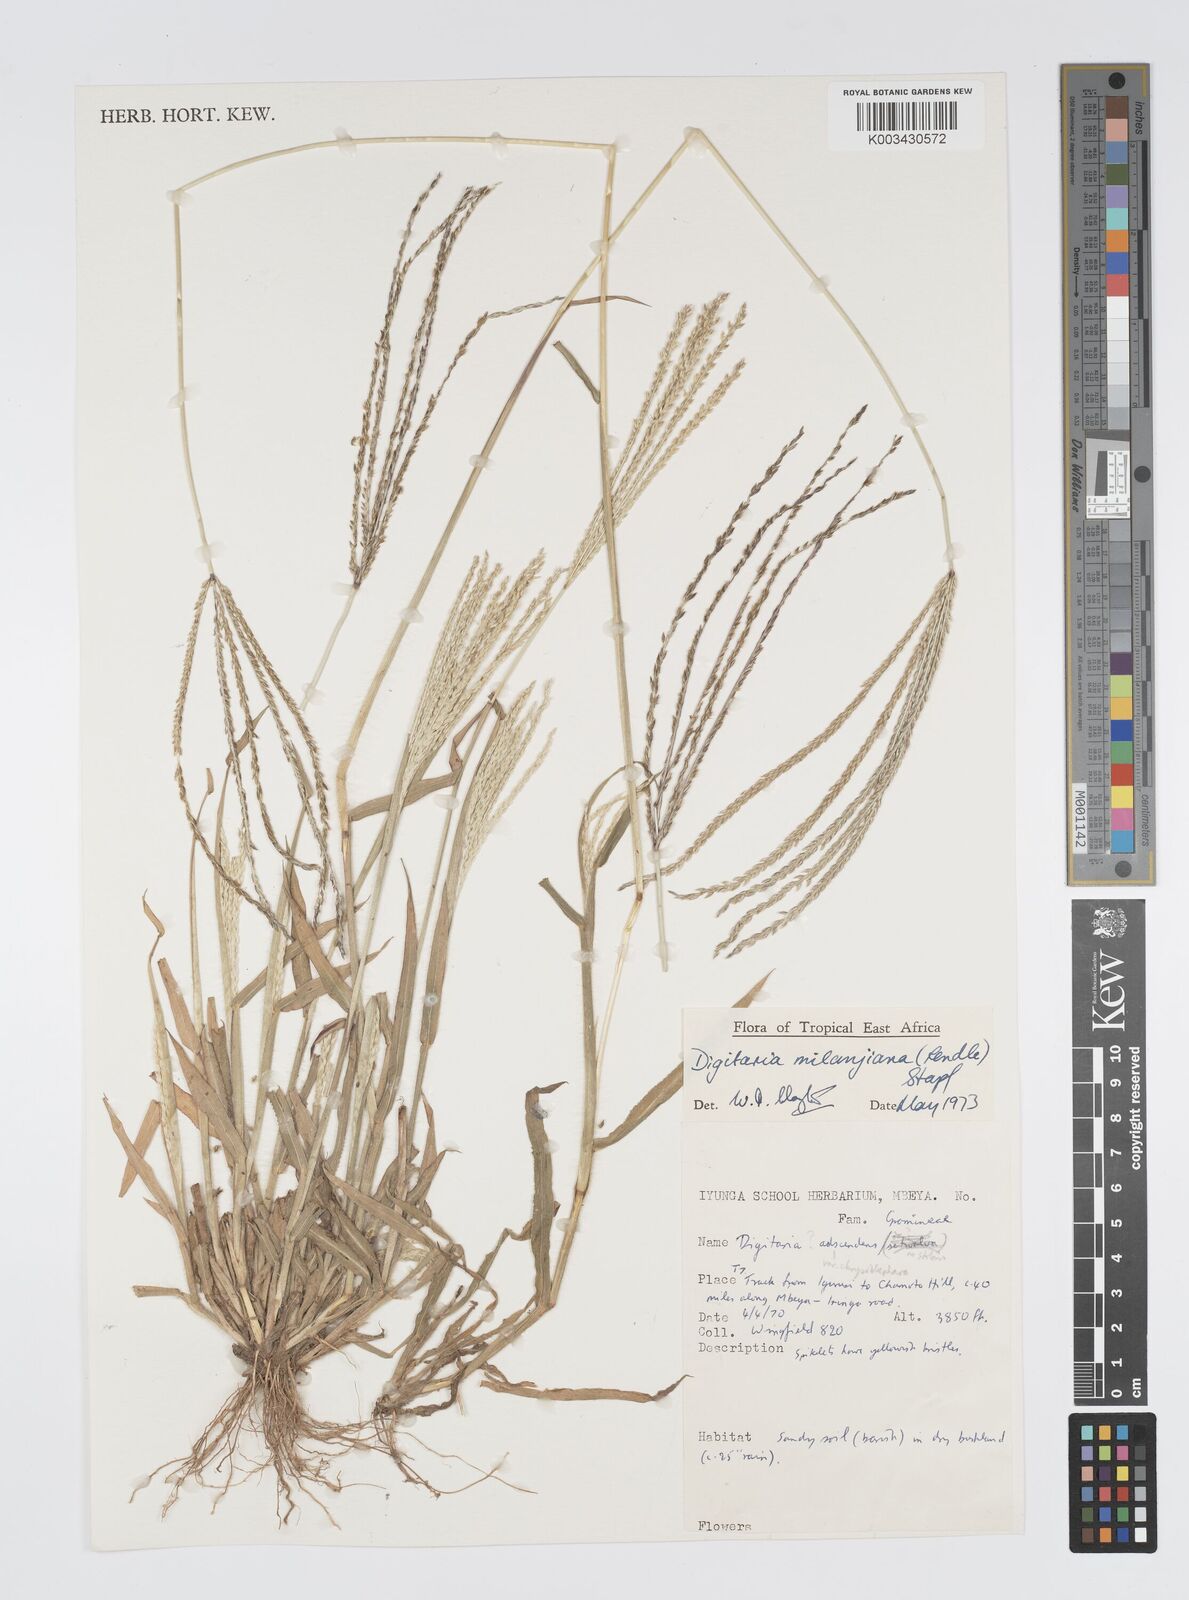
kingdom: Plantae
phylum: Tracheophyta
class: Liliopsida
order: Poales
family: Poaceae
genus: Digitaria
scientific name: Digitaria milanjiana
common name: Madagascar crabgrass
